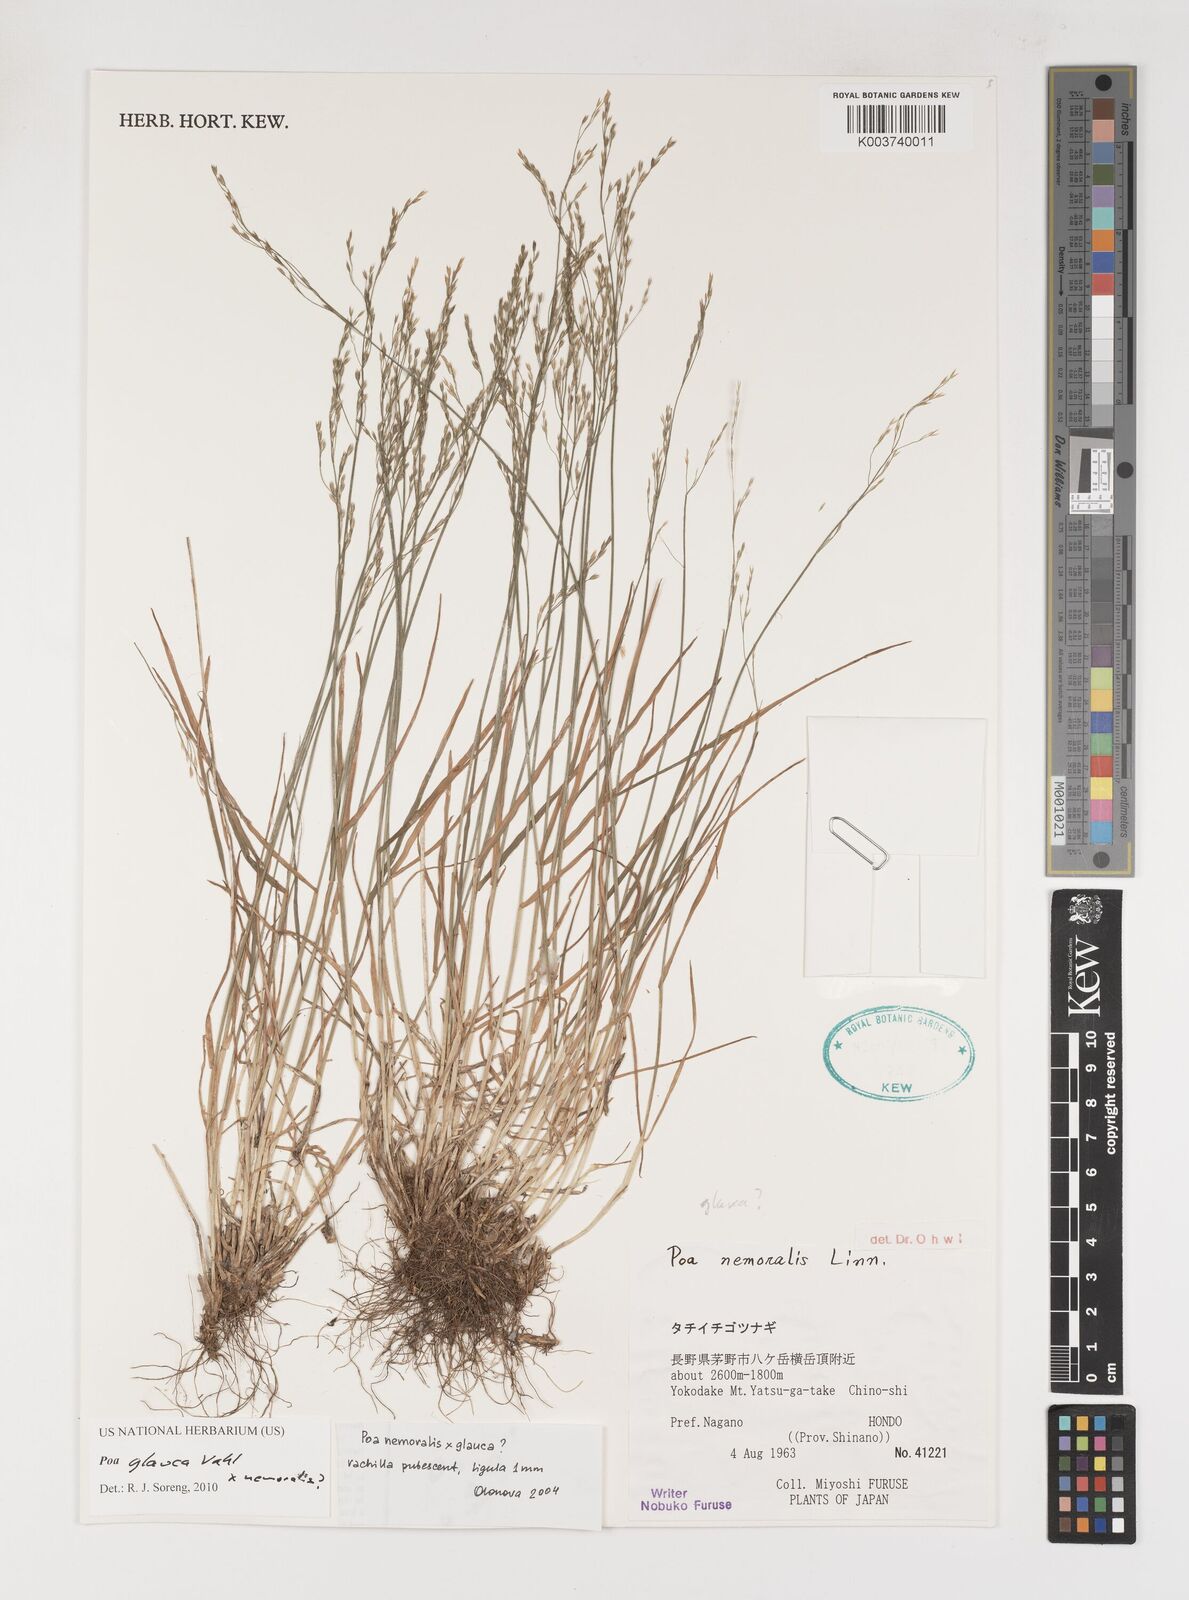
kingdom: Plantae
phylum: Tracheophyta
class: Liliopsida
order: Poales
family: Poaceae
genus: Poa
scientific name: Poa glauca
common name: Glaucous bluegrass
